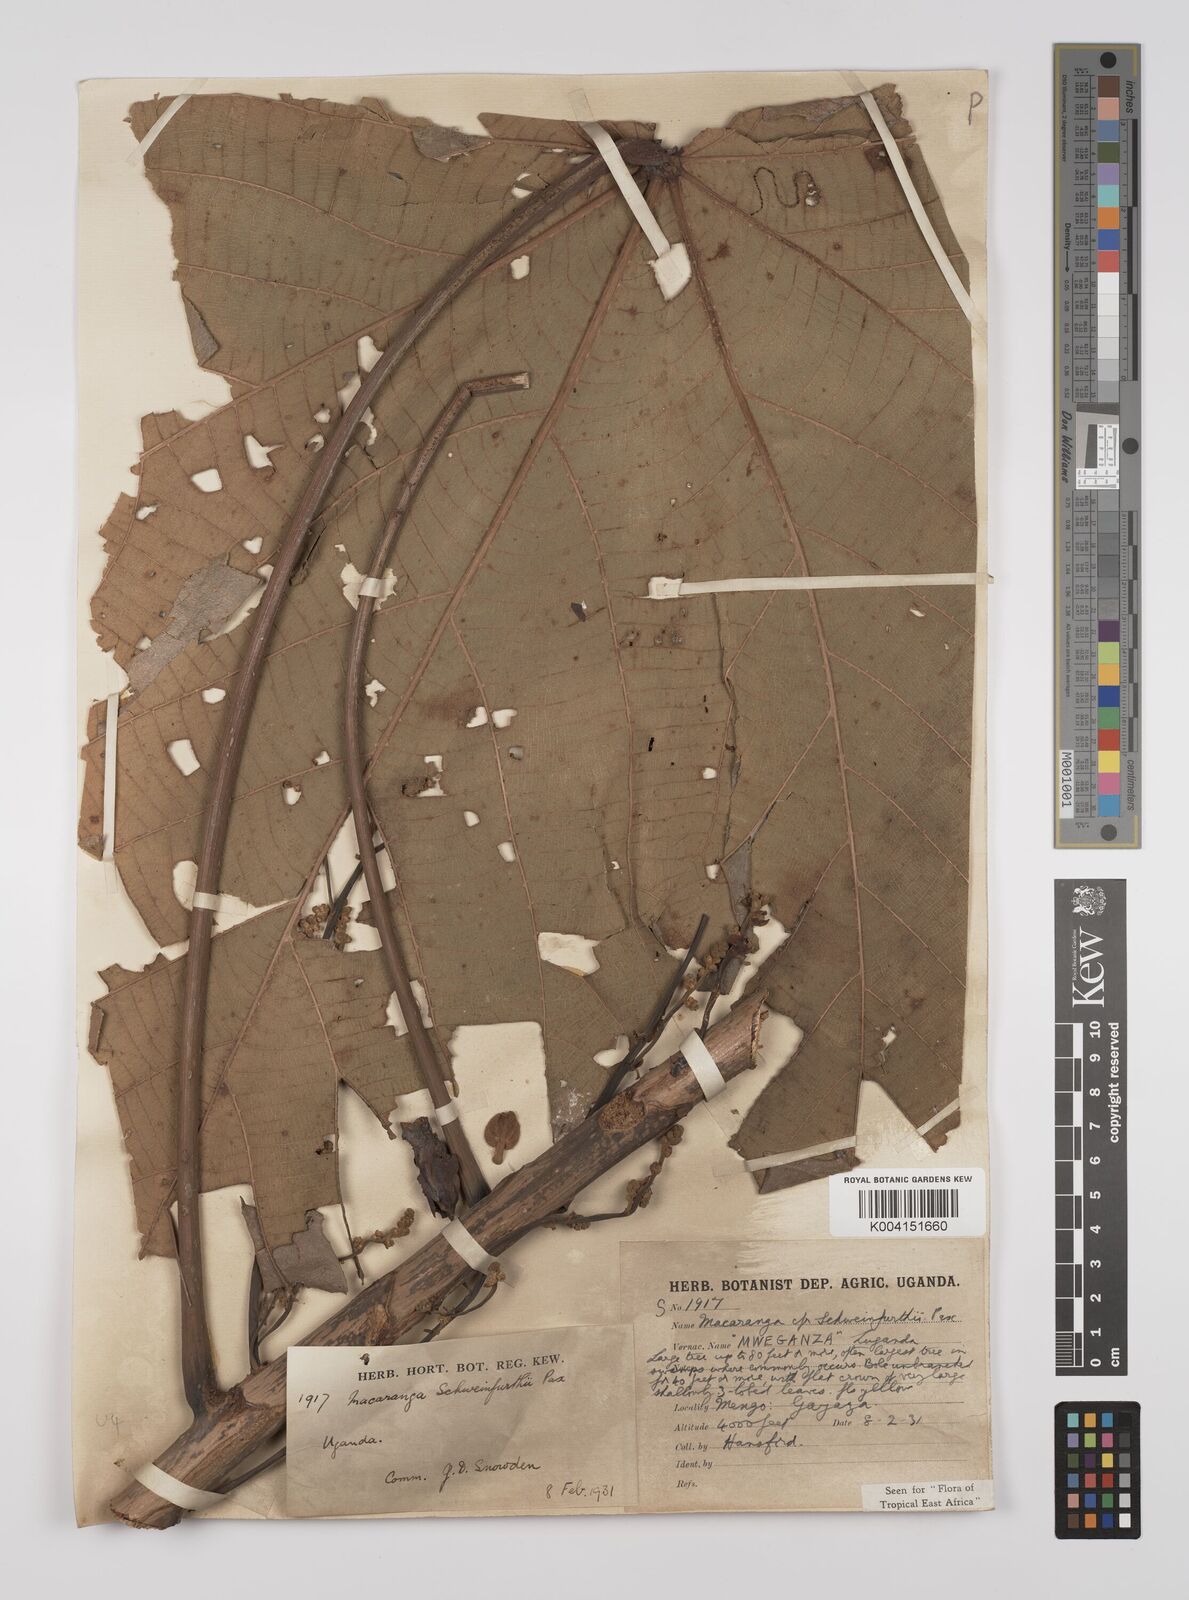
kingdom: Plantae
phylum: Tracheophyta
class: Magnoliopsida
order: Malpighiales
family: Euphorbiaceae
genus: Macaranga
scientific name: Macaranga schweinfurthii
